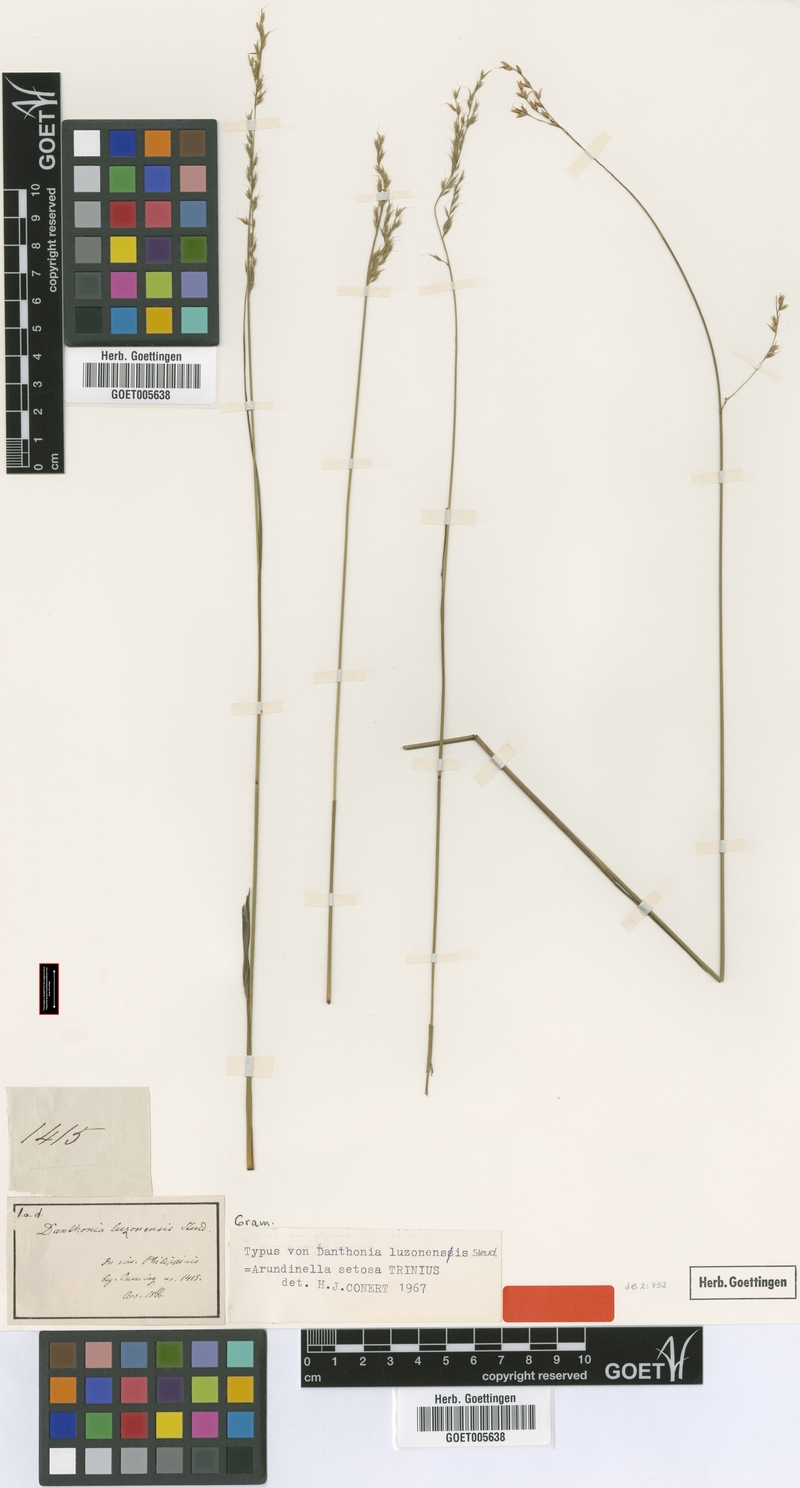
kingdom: Plantae
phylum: Tracheophyta
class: Liliopsida
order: Poales
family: Poaceae
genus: Arundinella
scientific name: Arundinella setosa
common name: Reed grass
